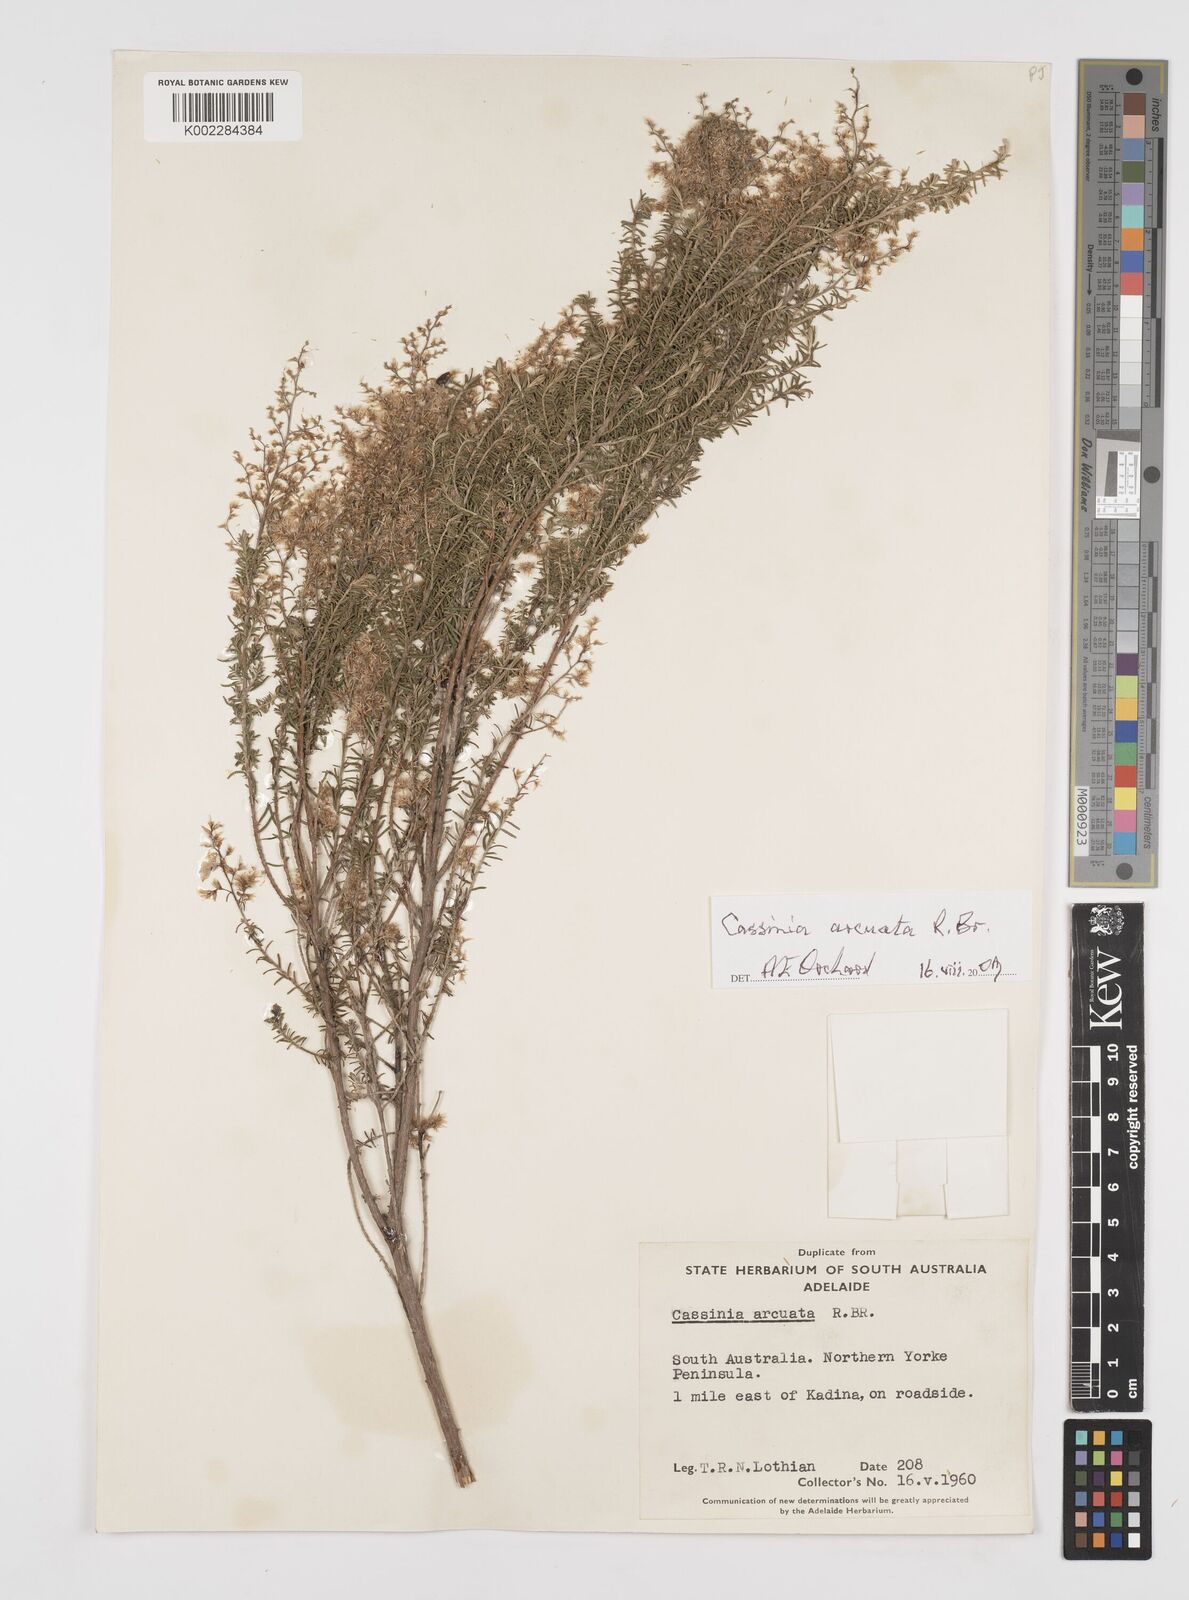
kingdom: Plantae
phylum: Tracheophyta
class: Magnoliopsida
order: Asterales
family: Asteraceae
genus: Cassinia
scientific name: Cassinia arcuata
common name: Chineseshrub
